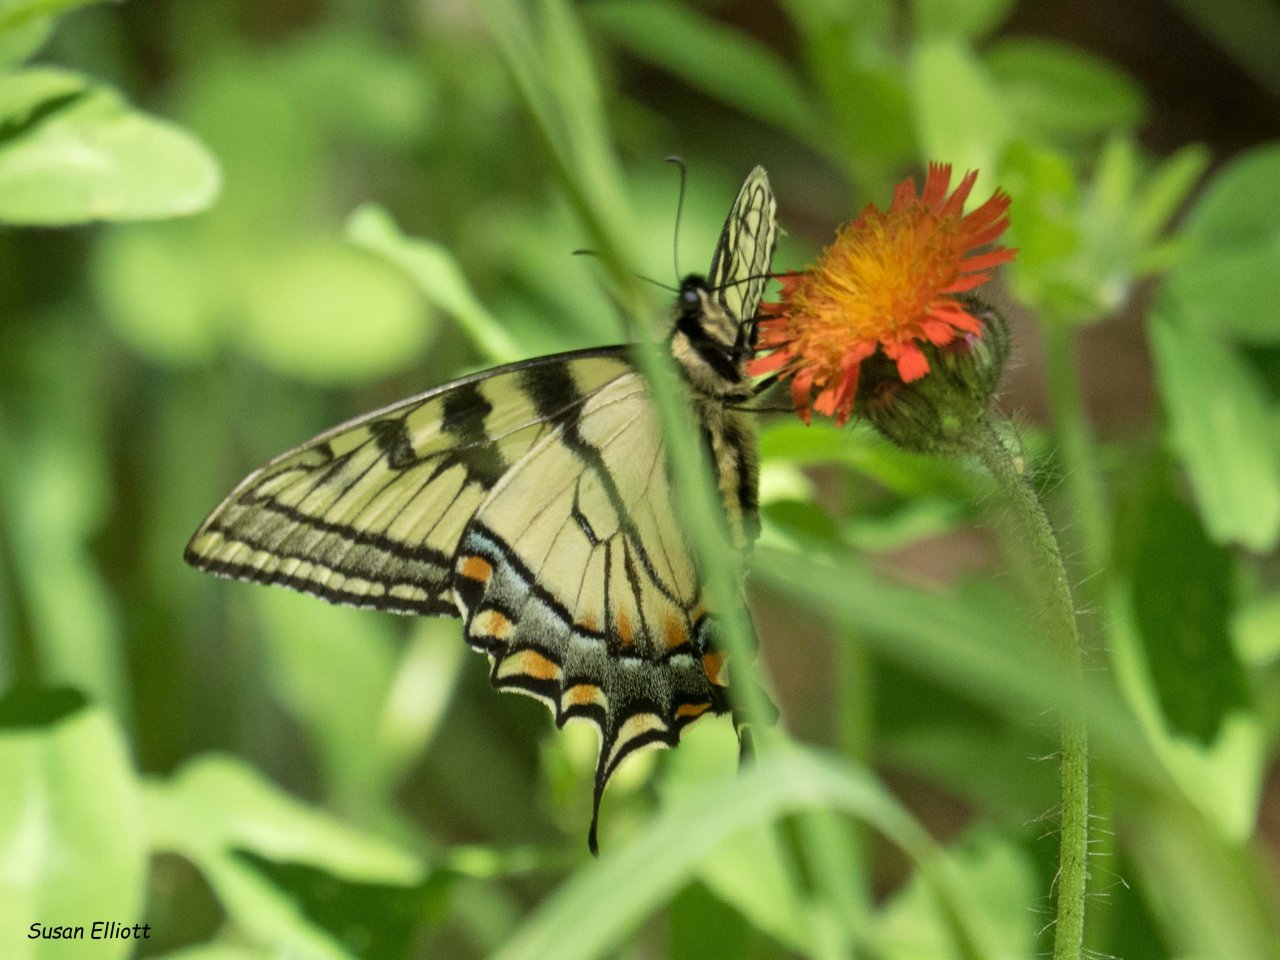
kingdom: Animalia
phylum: Arthropoda
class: Insecta
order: Lepidoptera
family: Papilionidae
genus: Pterourus
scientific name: Pterourus canadensis
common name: Canadian Tiger Swallowtail
